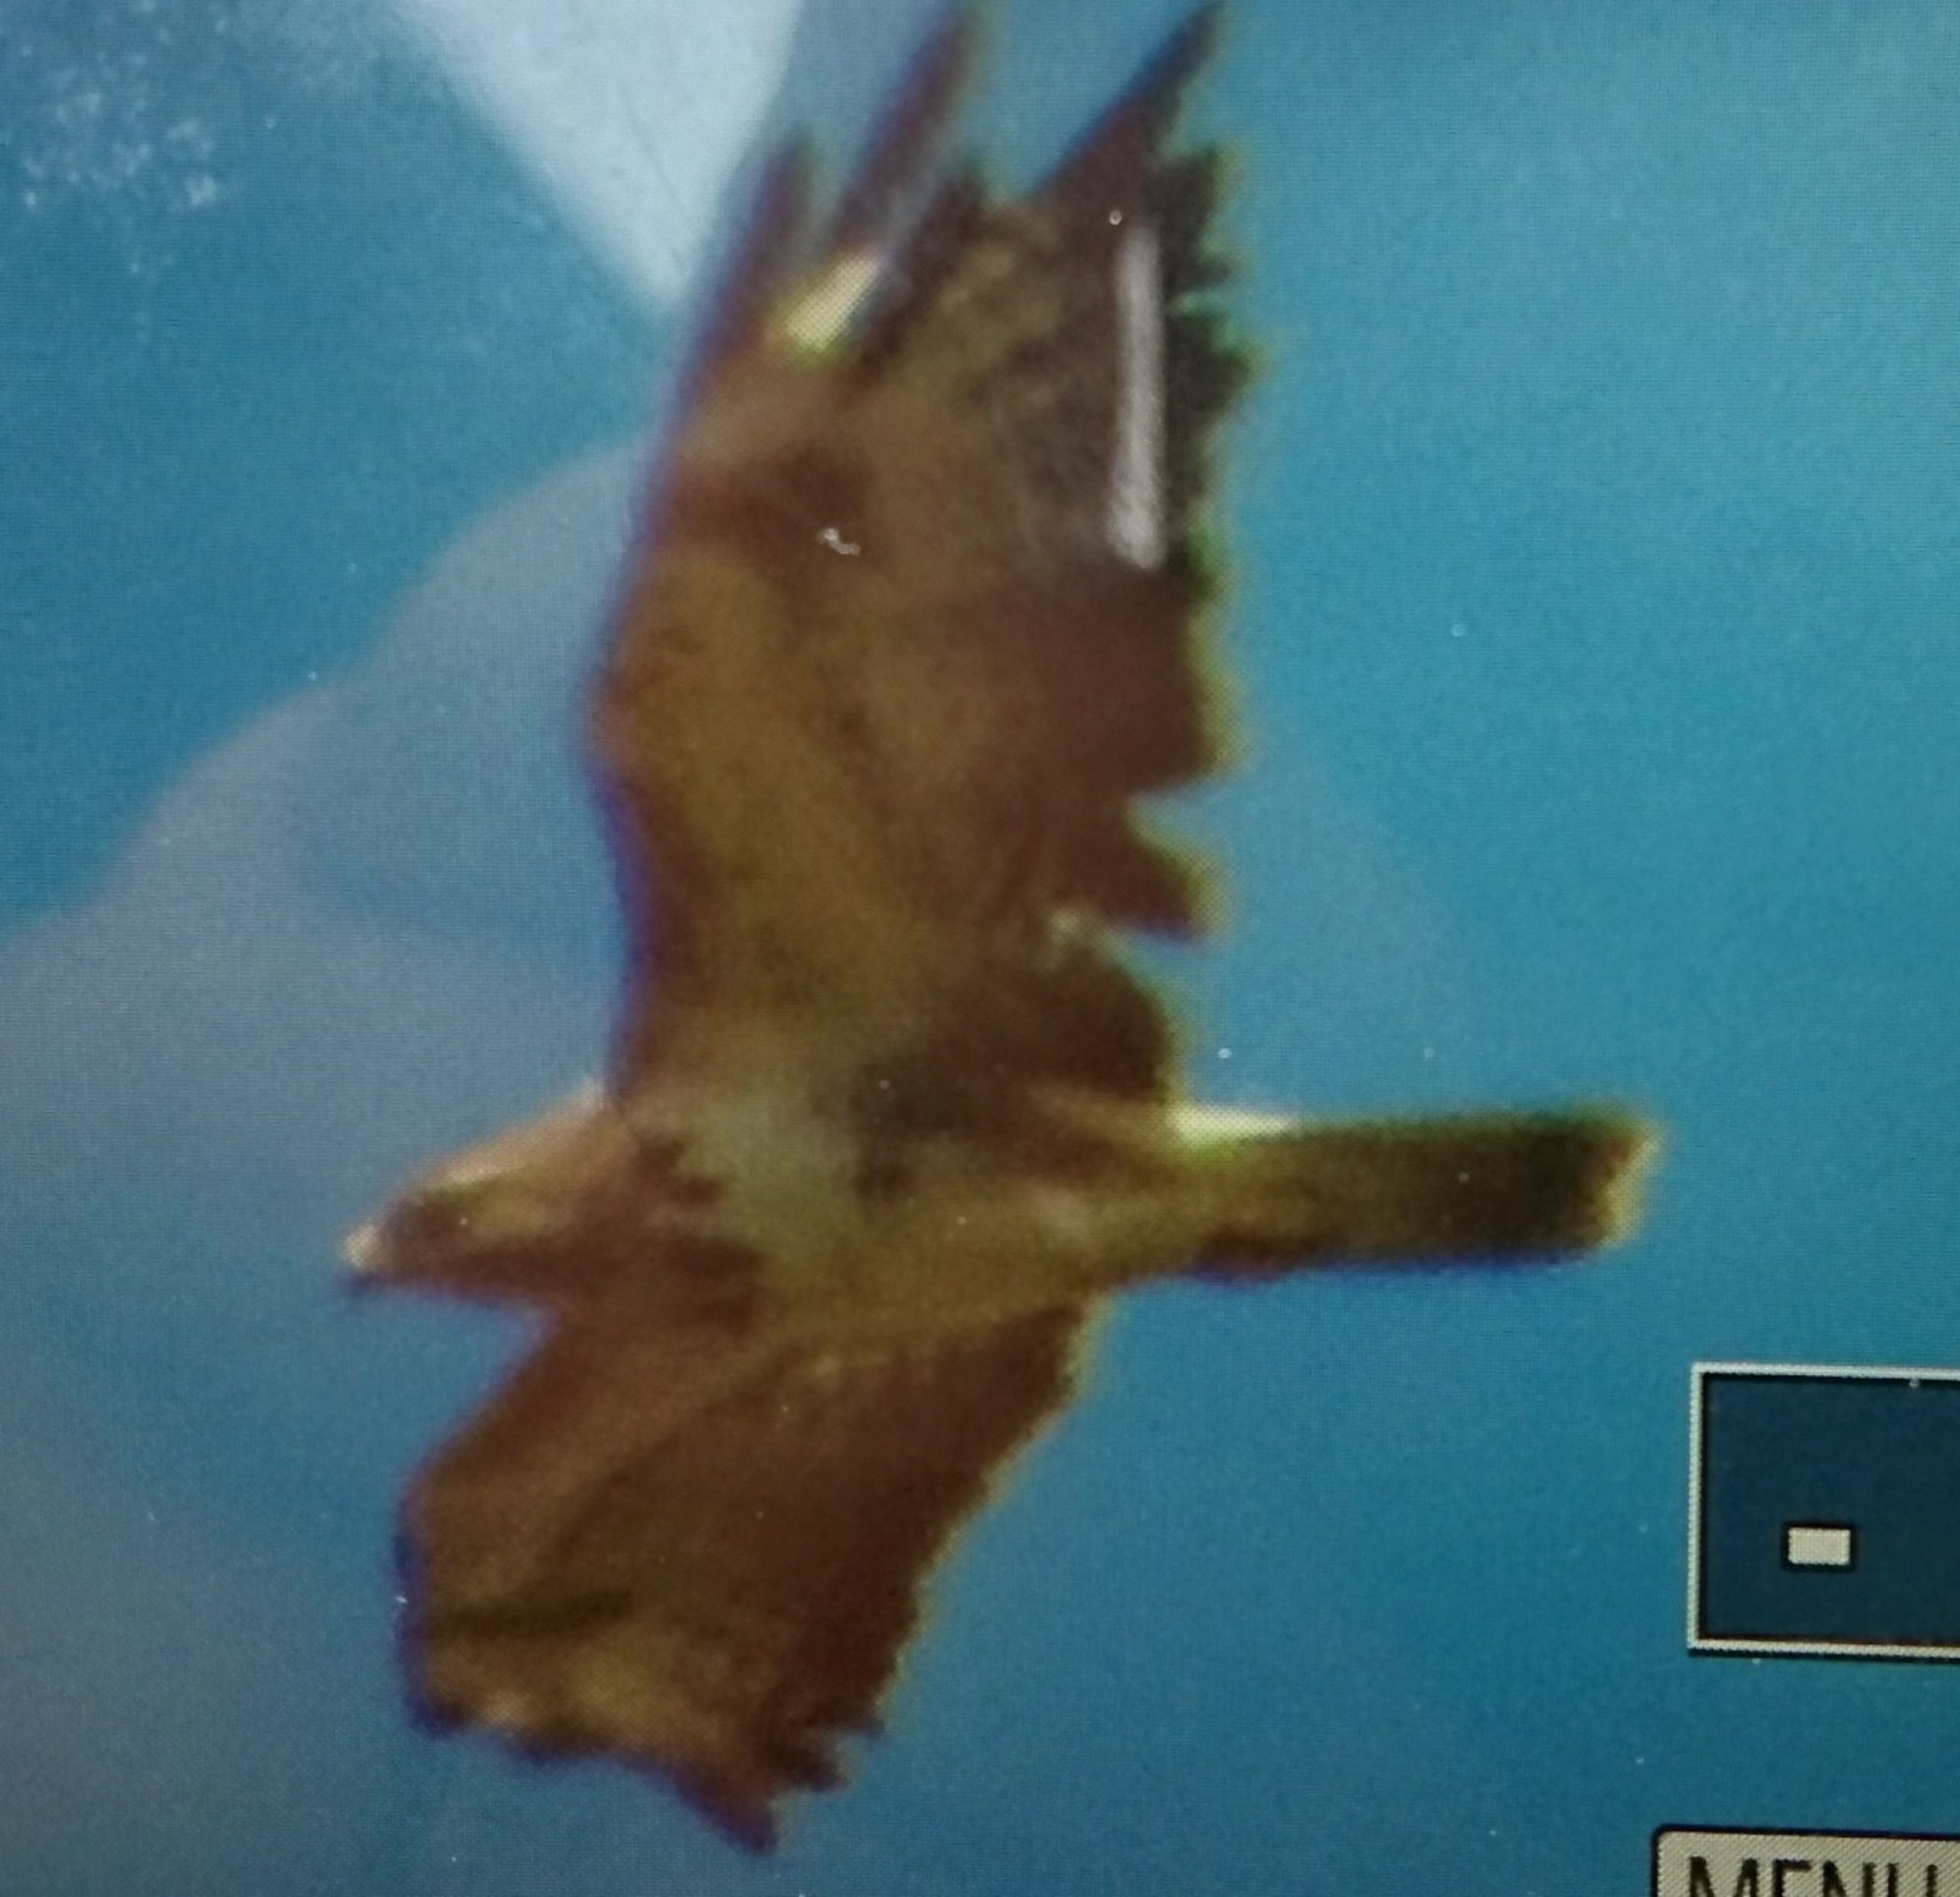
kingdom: Animalia
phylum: Chordata
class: Aves
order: Accipitriformes
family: Accipitridae
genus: Buteo
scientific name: Buteo buteo
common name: Musvåge
